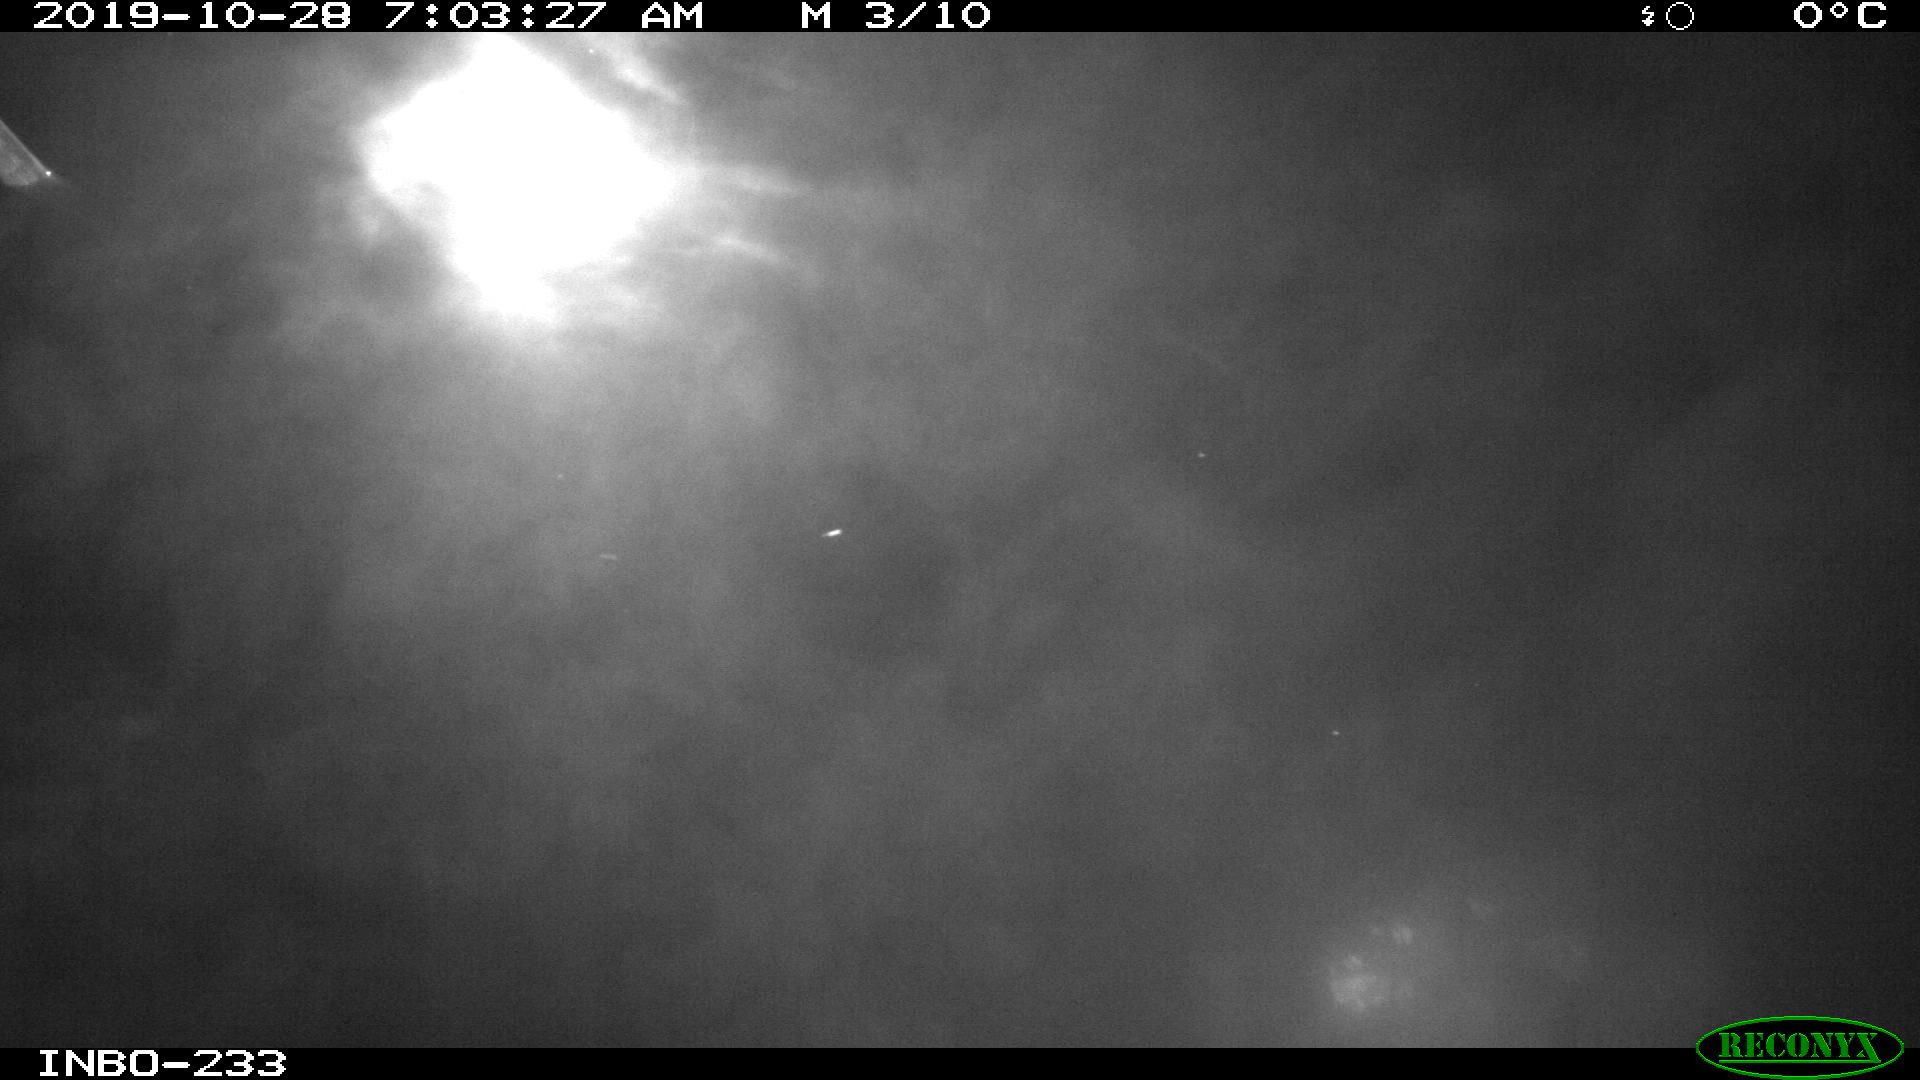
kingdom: Animalia
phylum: Chordata
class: Aves
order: Anseriformes
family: Anatidae
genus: Anas
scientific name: Anas platyrhynchos
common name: Mallard
